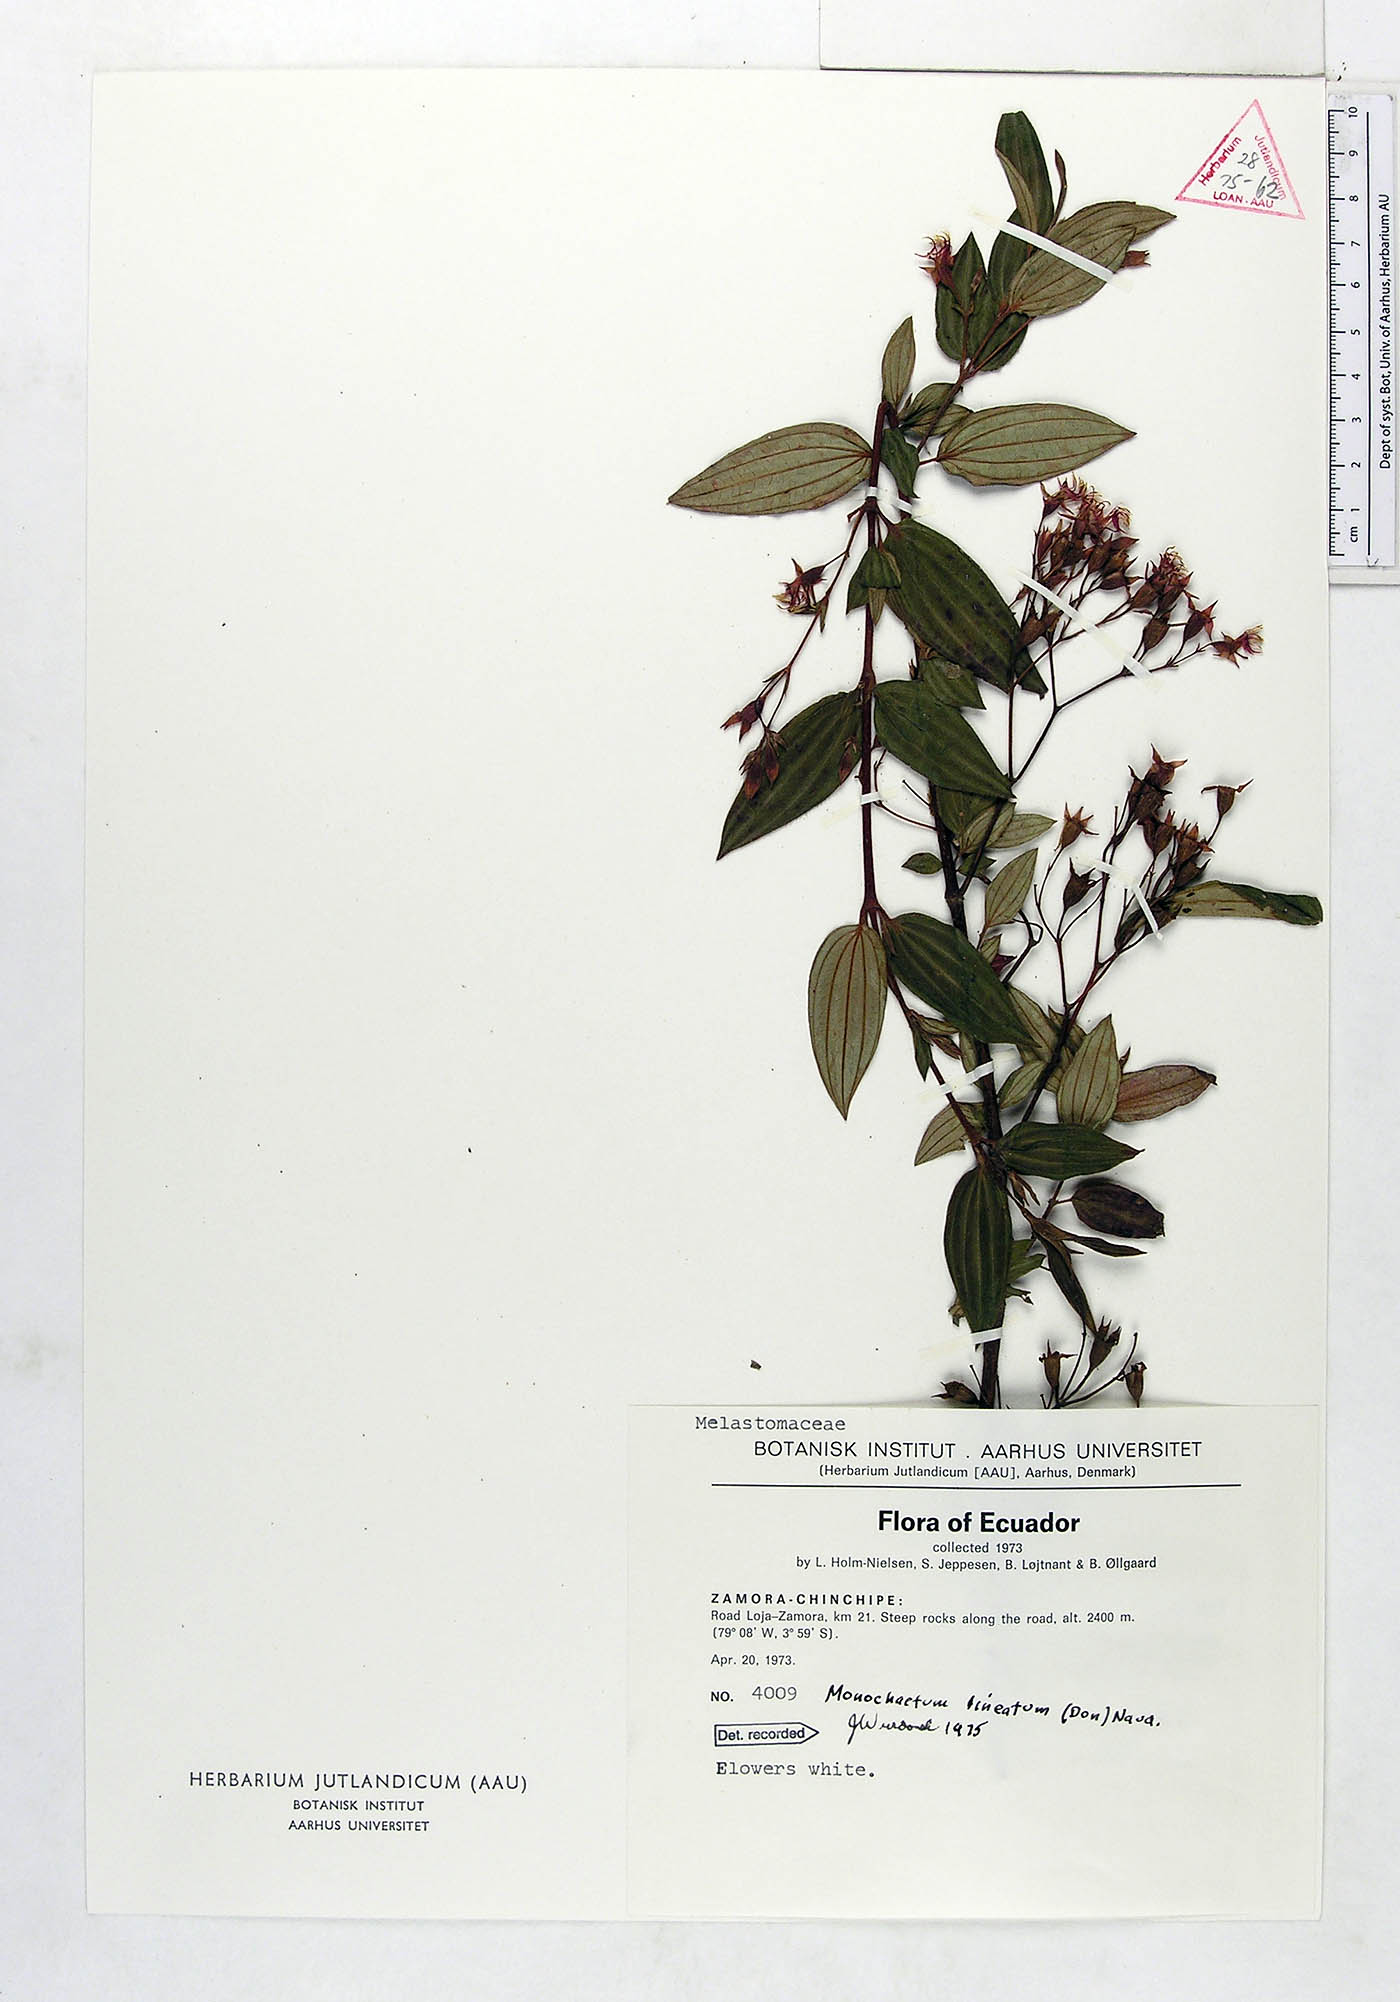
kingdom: Plantae
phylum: Tracheophyta
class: Magnoliopsida
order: Myrtales
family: Melastomataceae
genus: Monochaetum
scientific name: Monochaetum lineatum
